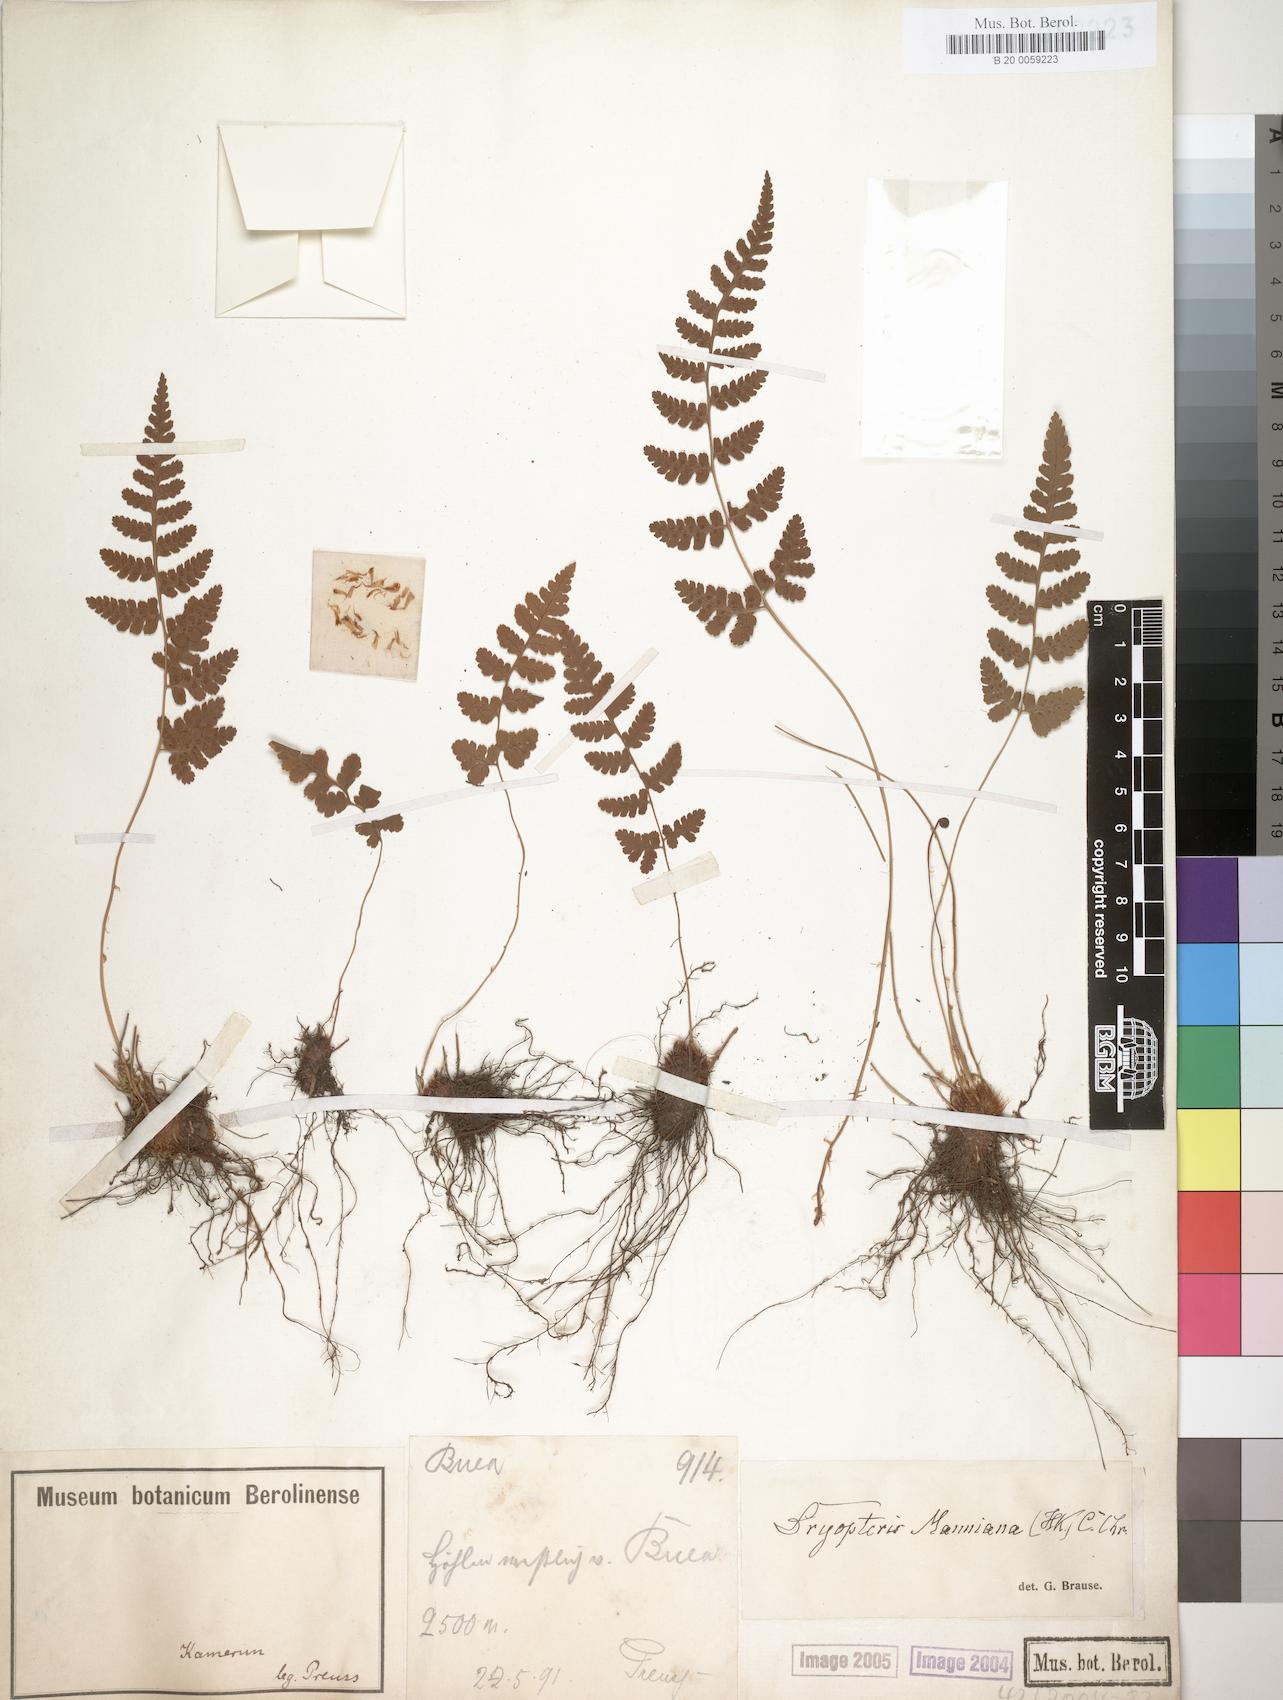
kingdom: Plantae
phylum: Tracheophyta
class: Polypodiopsida
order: Polypodiales
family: Dryopteridaceae
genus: Dryopteris
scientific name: Dryopteris manniana
